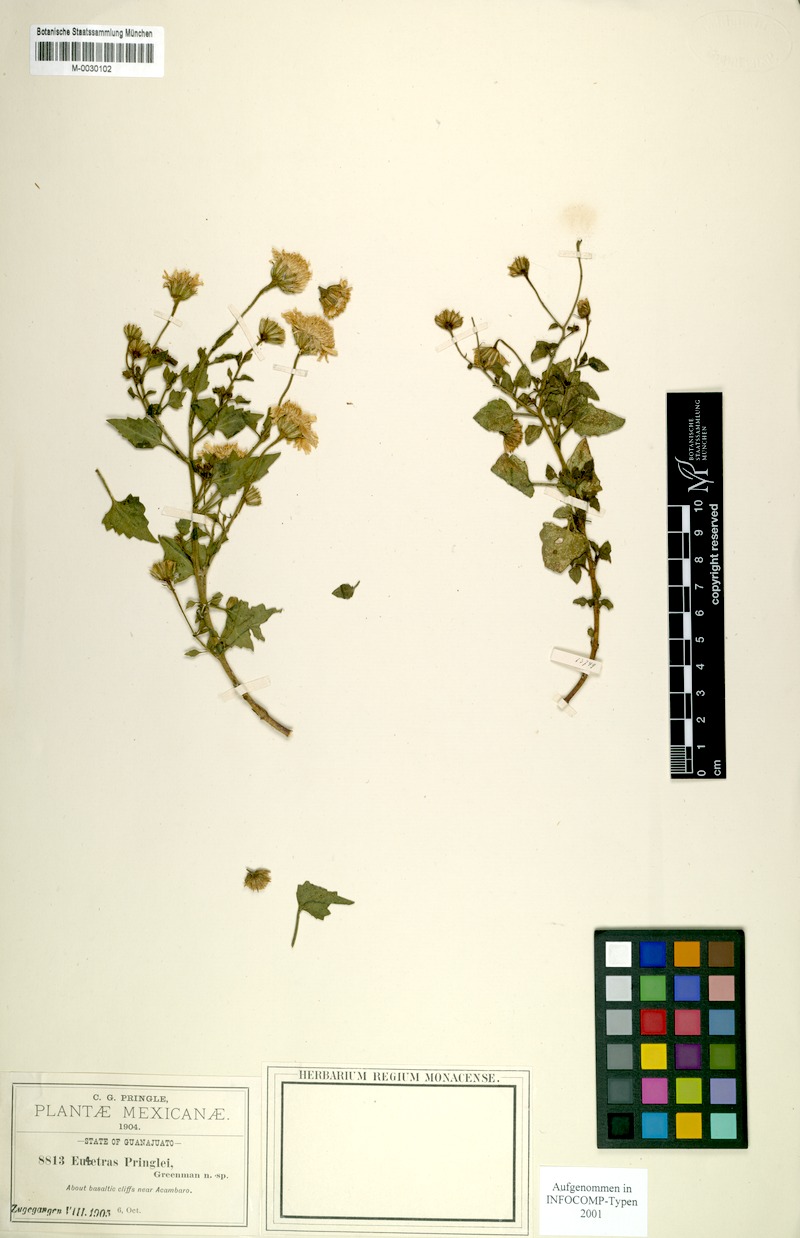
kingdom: Plantae
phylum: Tracheophyta
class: Magnoliopsida
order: Asterales
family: Asteraceae
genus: Eutetras
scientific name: Eutetras pringlei
